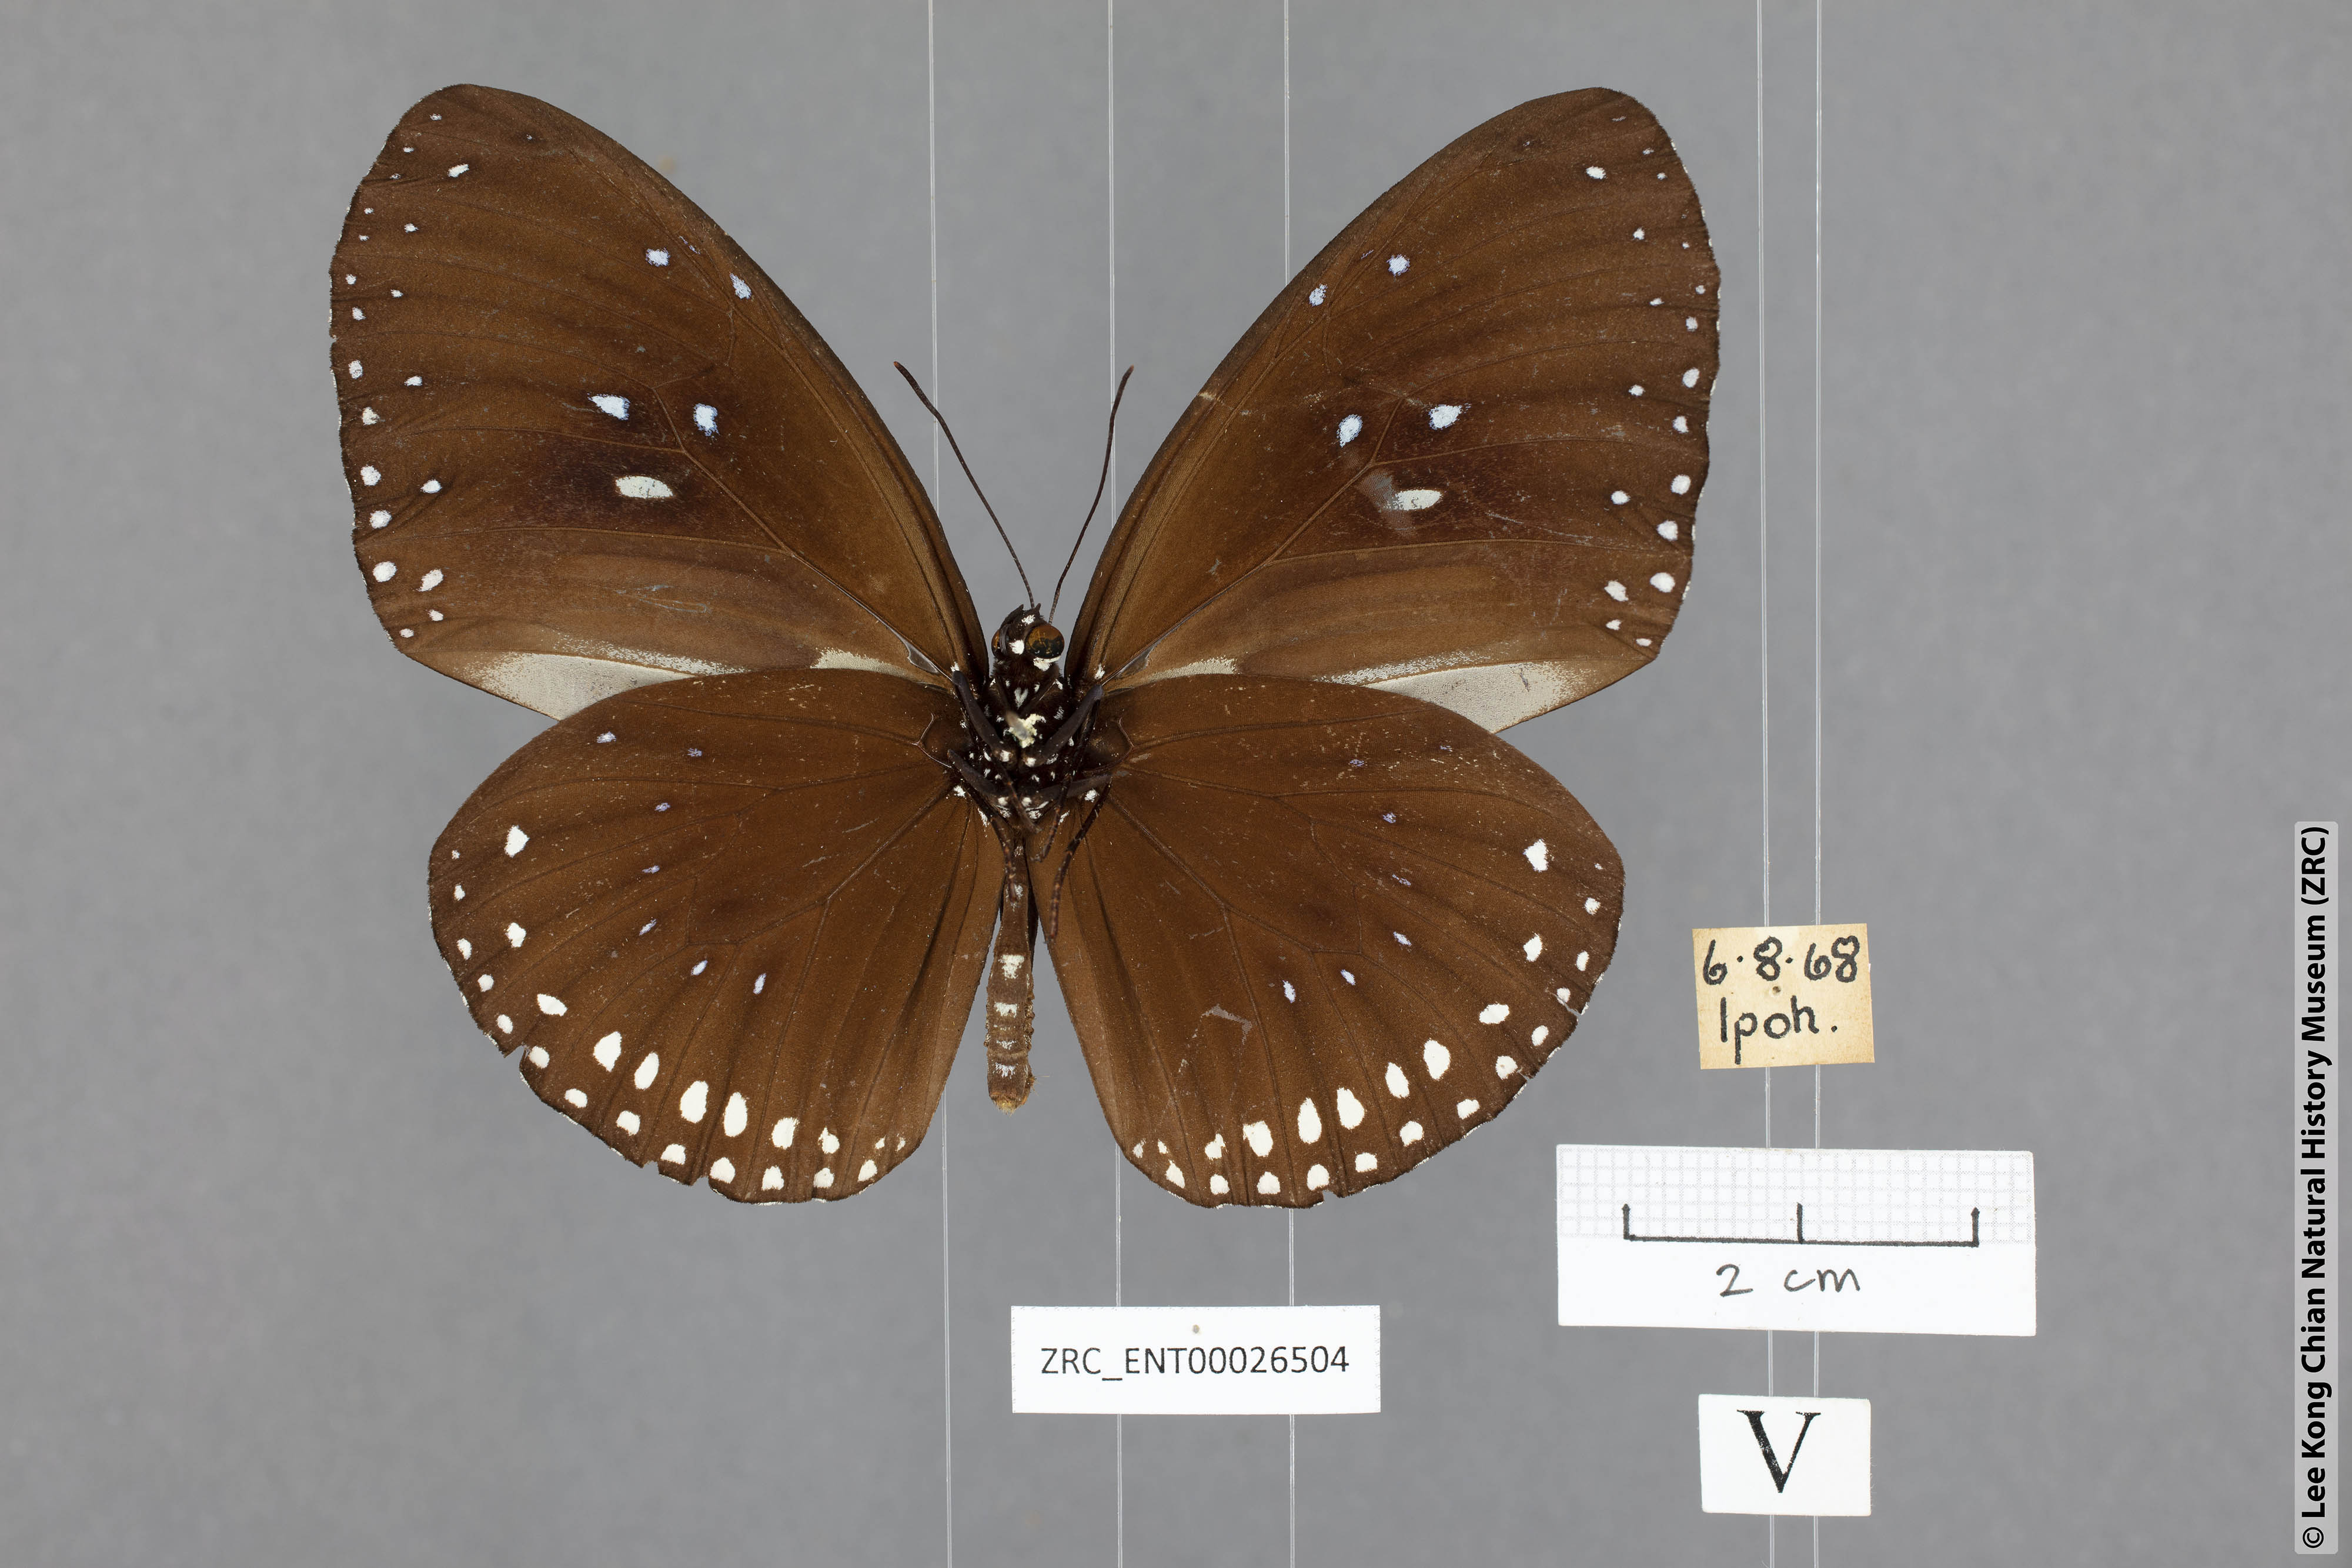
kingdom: Animalia
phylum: Arthropoda
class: Insecta
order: Lepidoptera
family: Nymphalidae
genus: Euploea
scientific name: Euploea sylvester
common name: Double-branded crow butterfly
